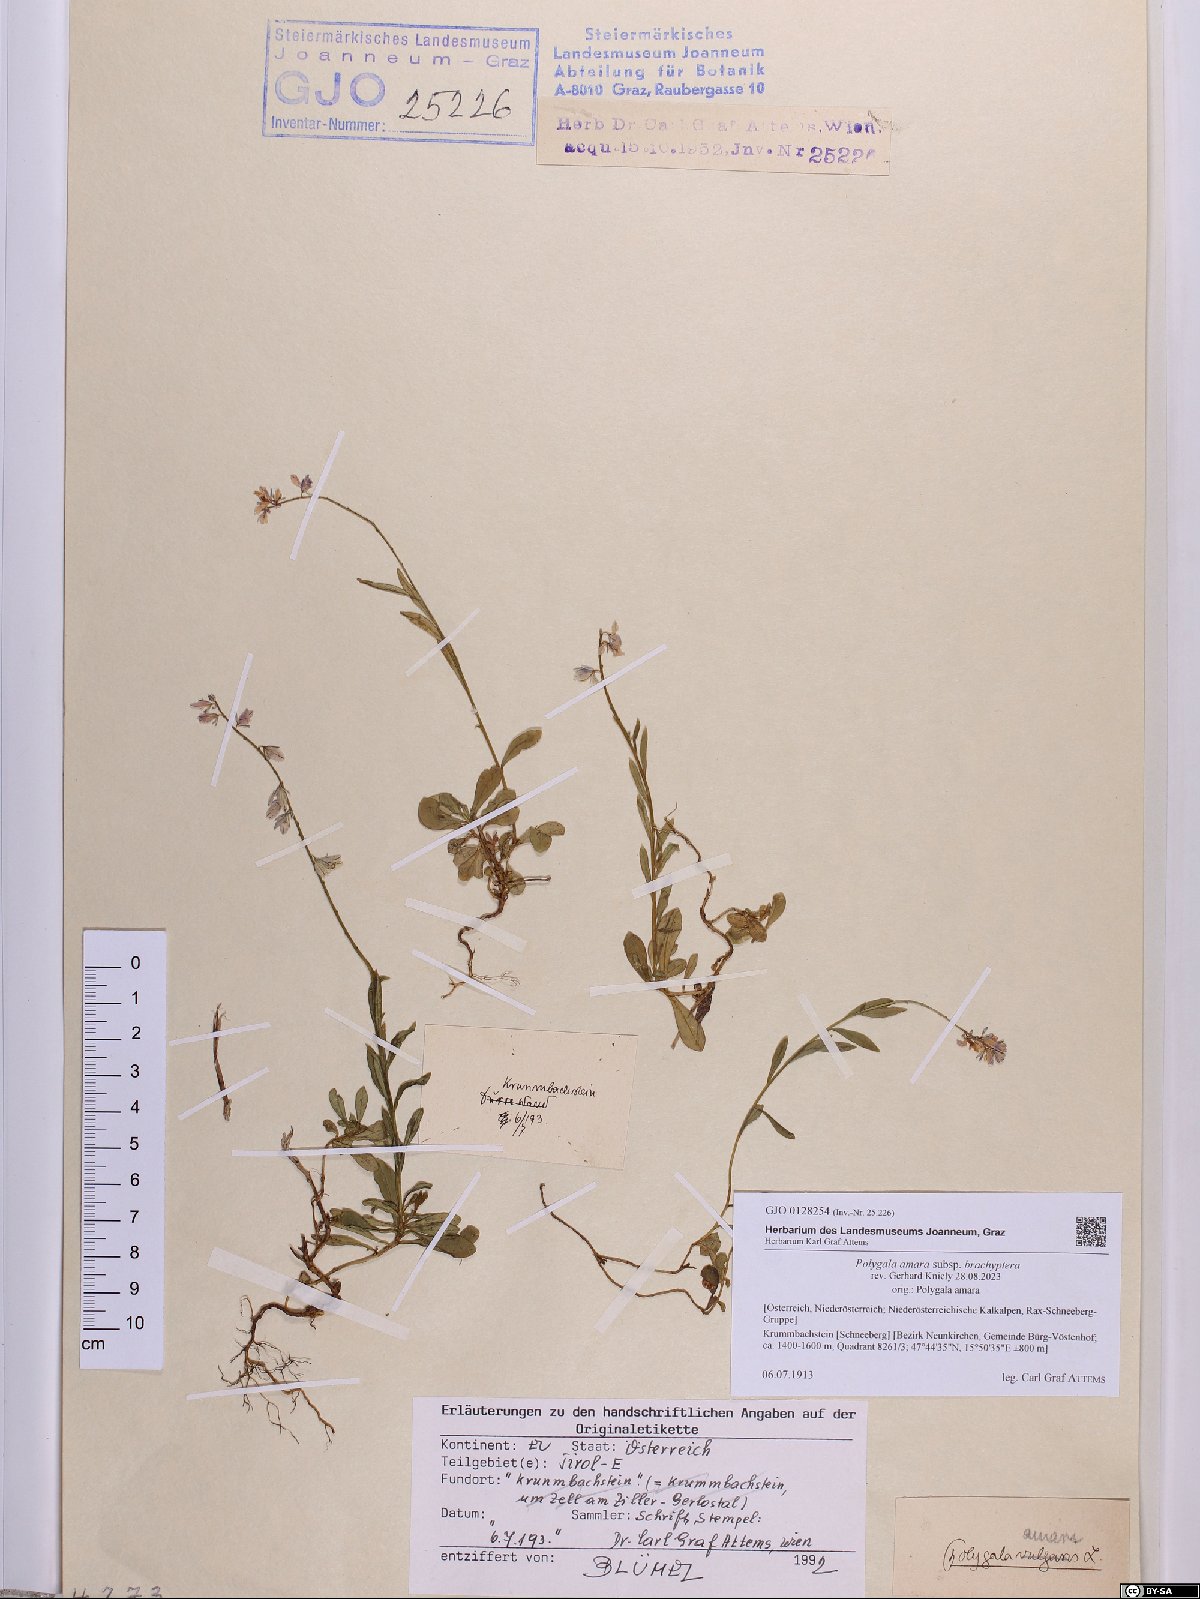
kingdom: Plantae
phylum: Tracheophyta
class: Magnoliopsida
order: Fabales
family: Polygalaceae
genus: Polygala
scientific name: Polygala amara
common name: Milkwort
